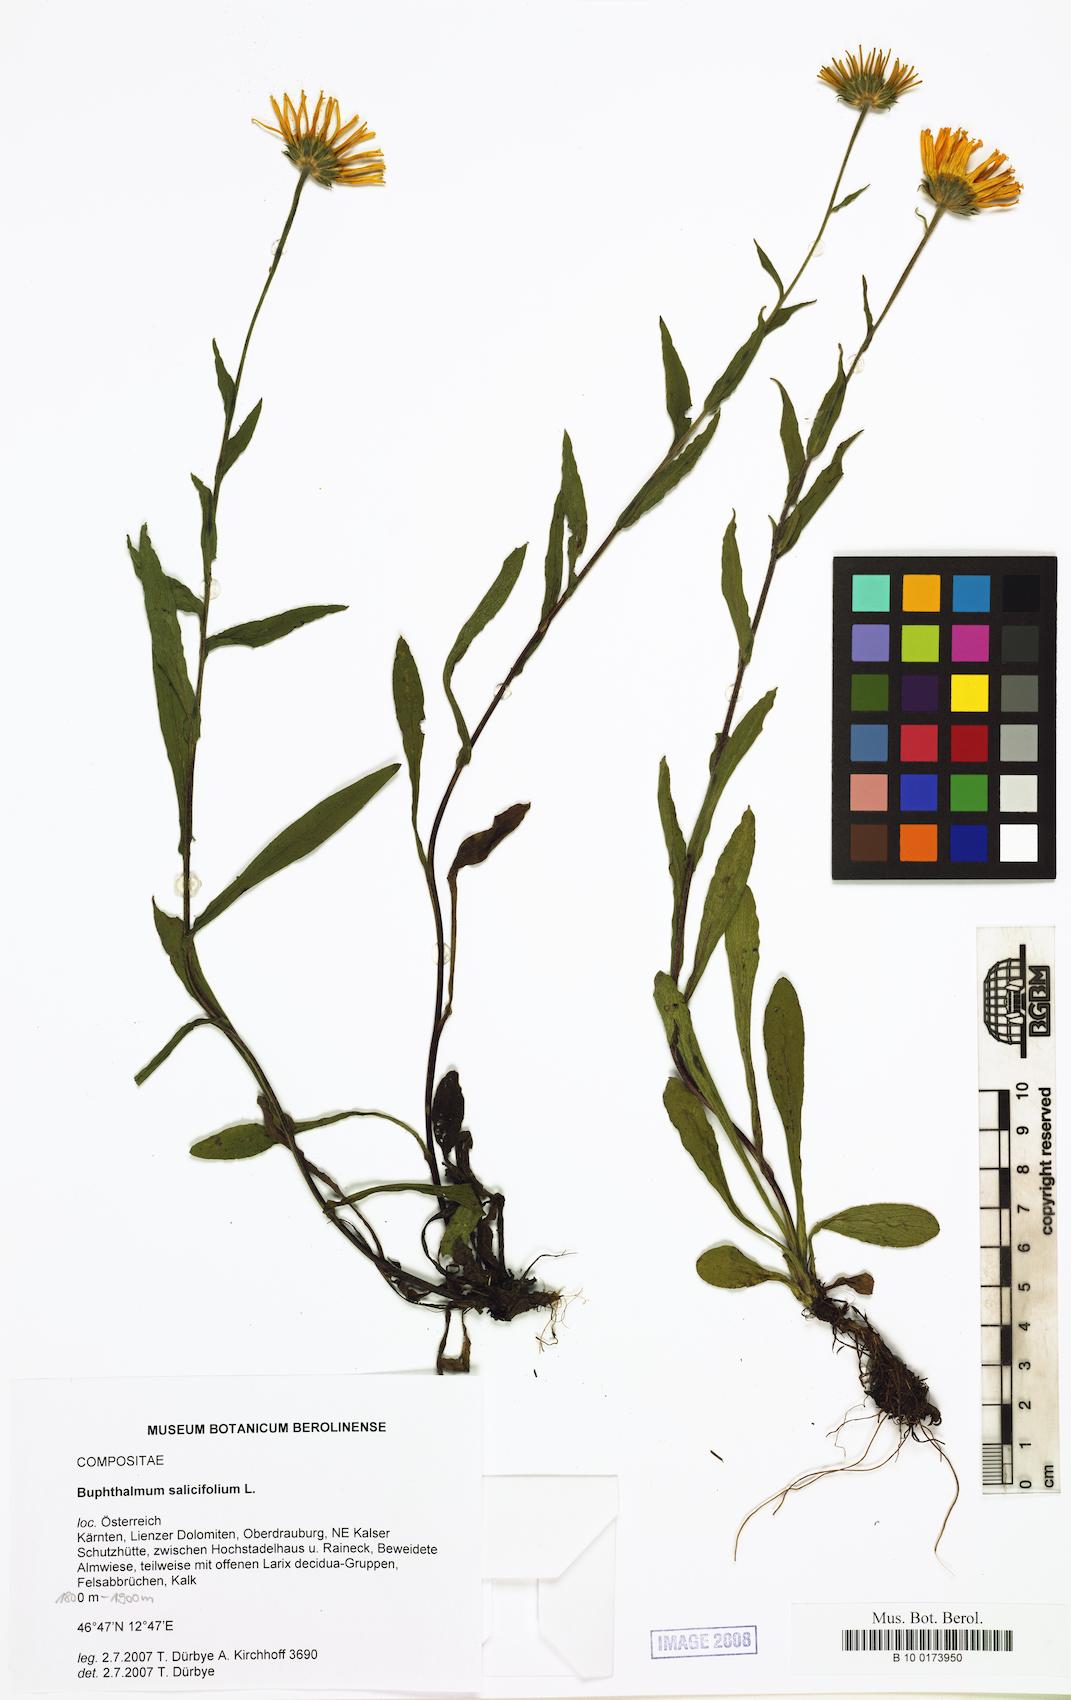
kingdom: Plantae
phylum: Tracheophyta
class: Magnoliopsida
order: Asterales
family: Asteraceae
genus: Buphthalmum
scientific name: Buphthalmum salicifolium
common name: Willow-leaved yellow-oxeye
